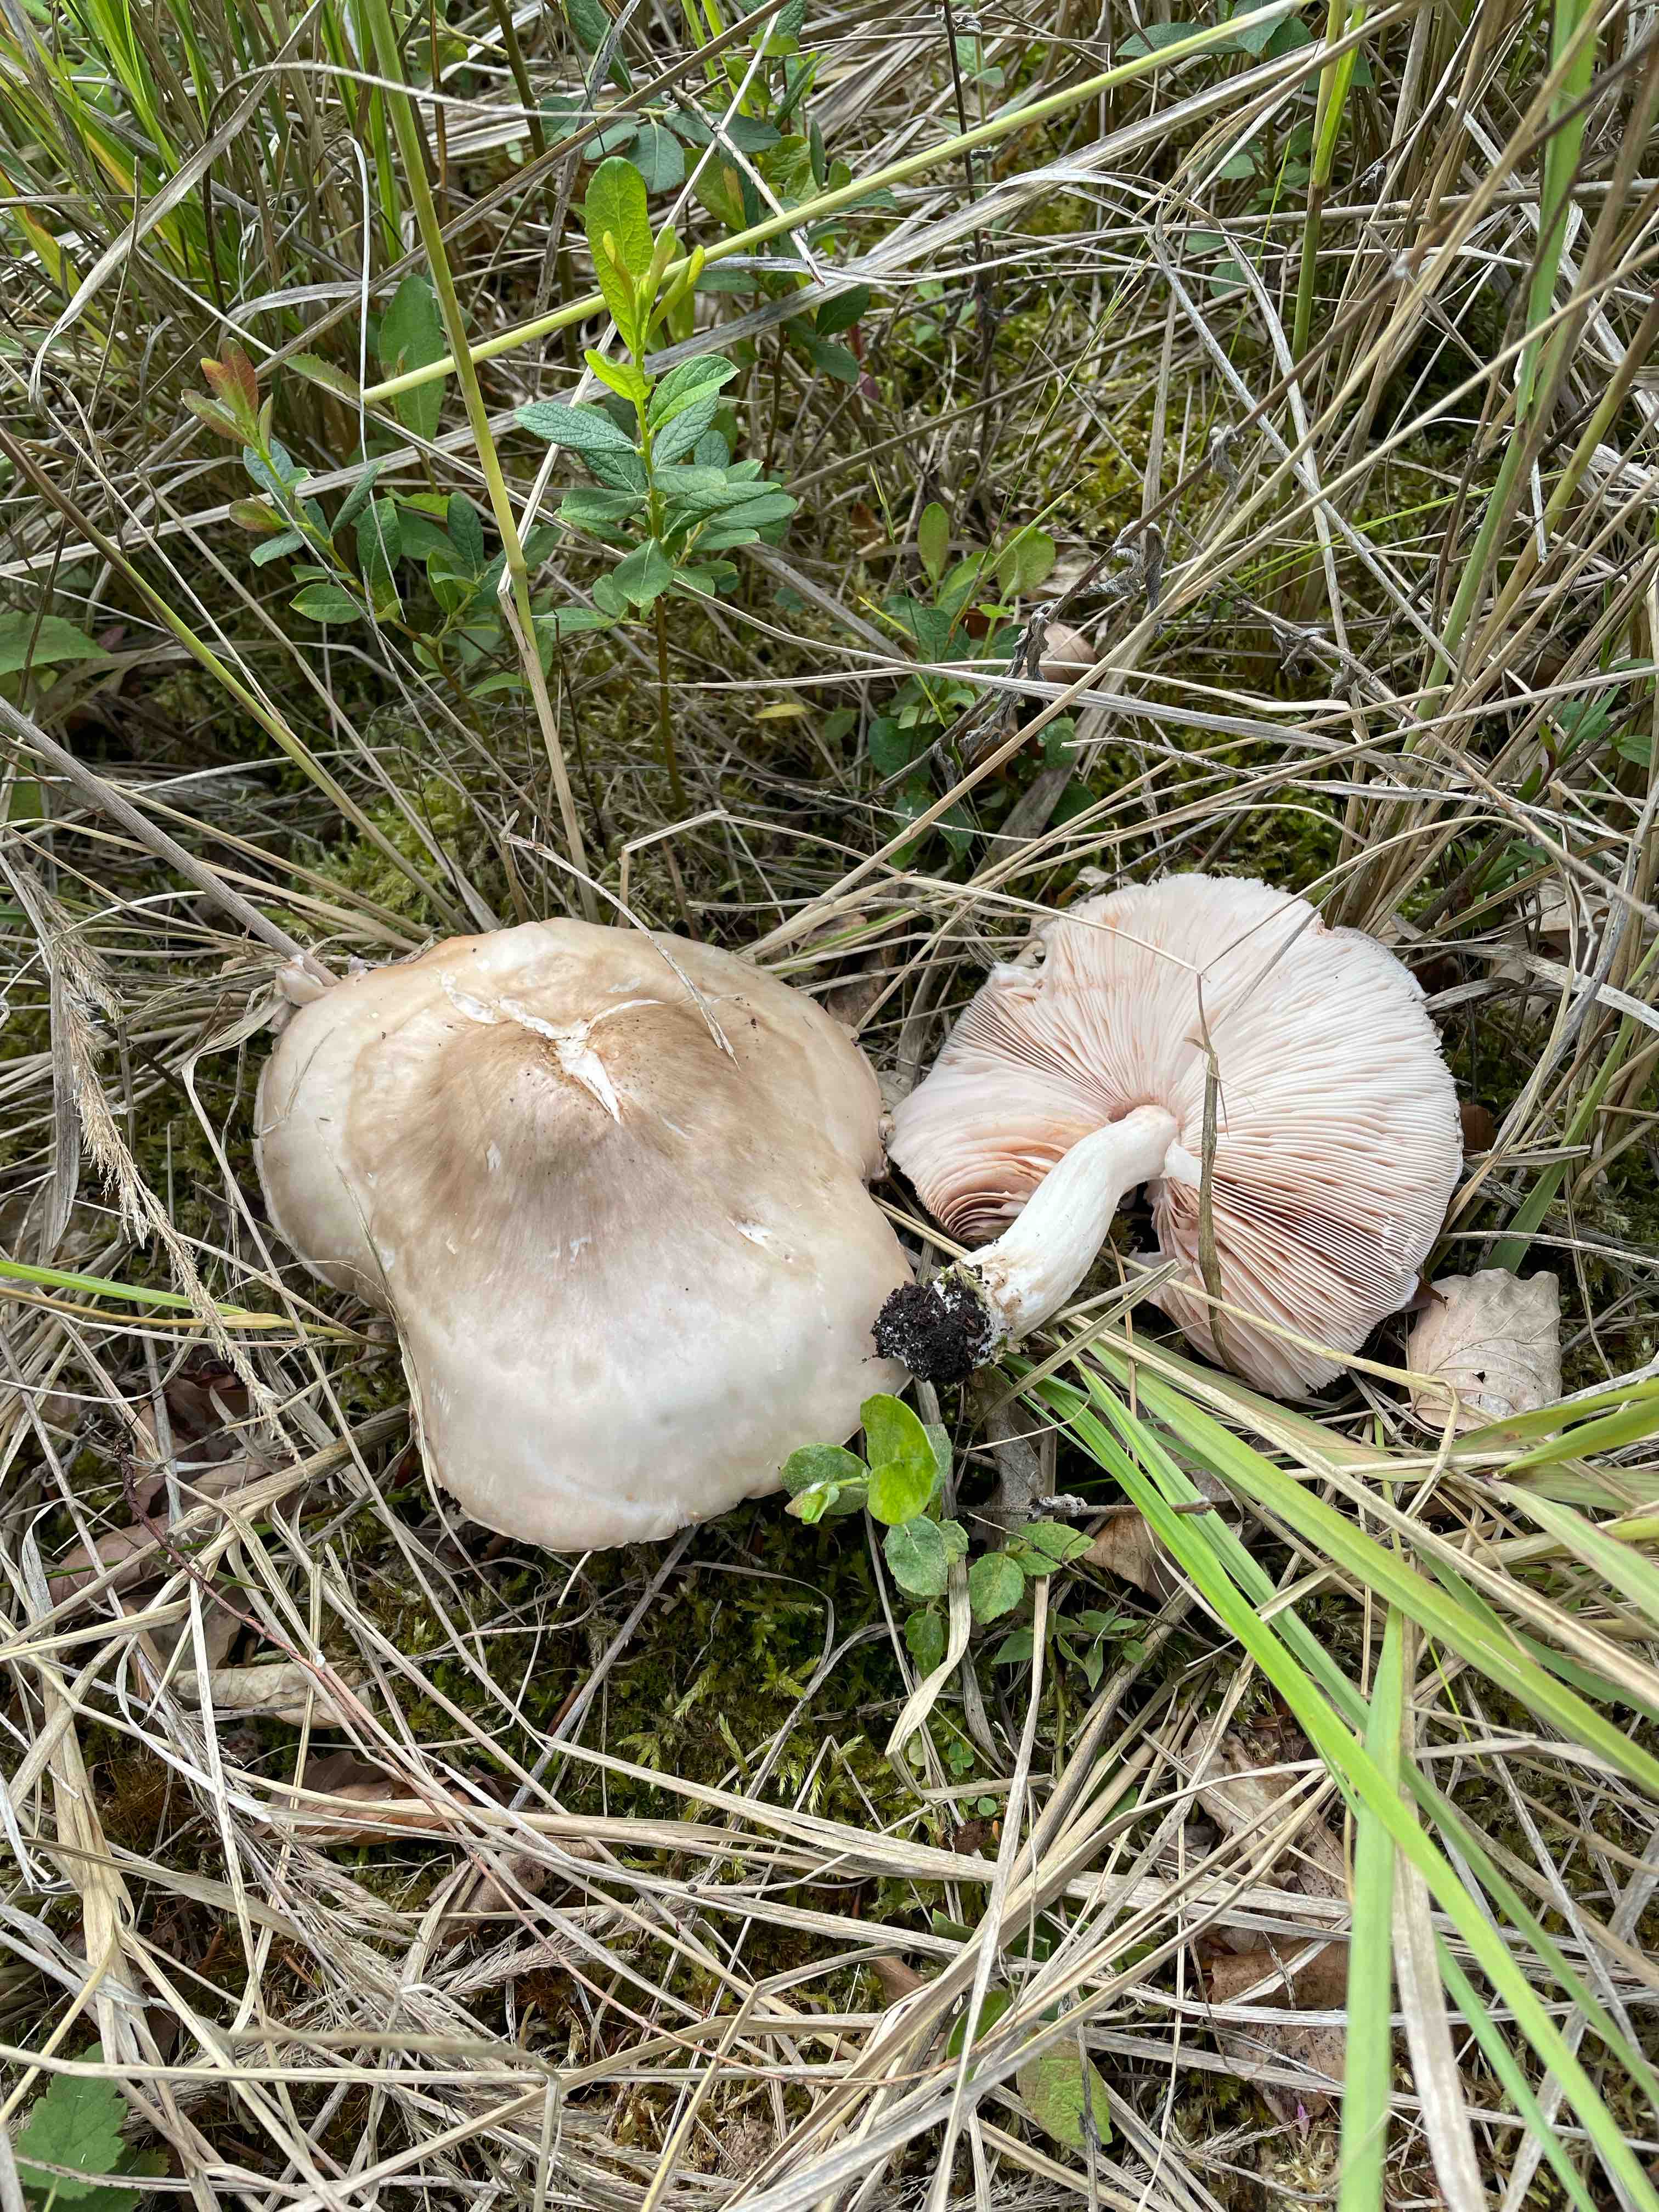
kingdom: Fungi
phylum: Basidiomycota
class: Agaricomycetes
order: Agaricales
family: Pluteaceae
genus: Pluteus
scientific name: Pluteus petasatus
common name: savsmulds-skærmhat
